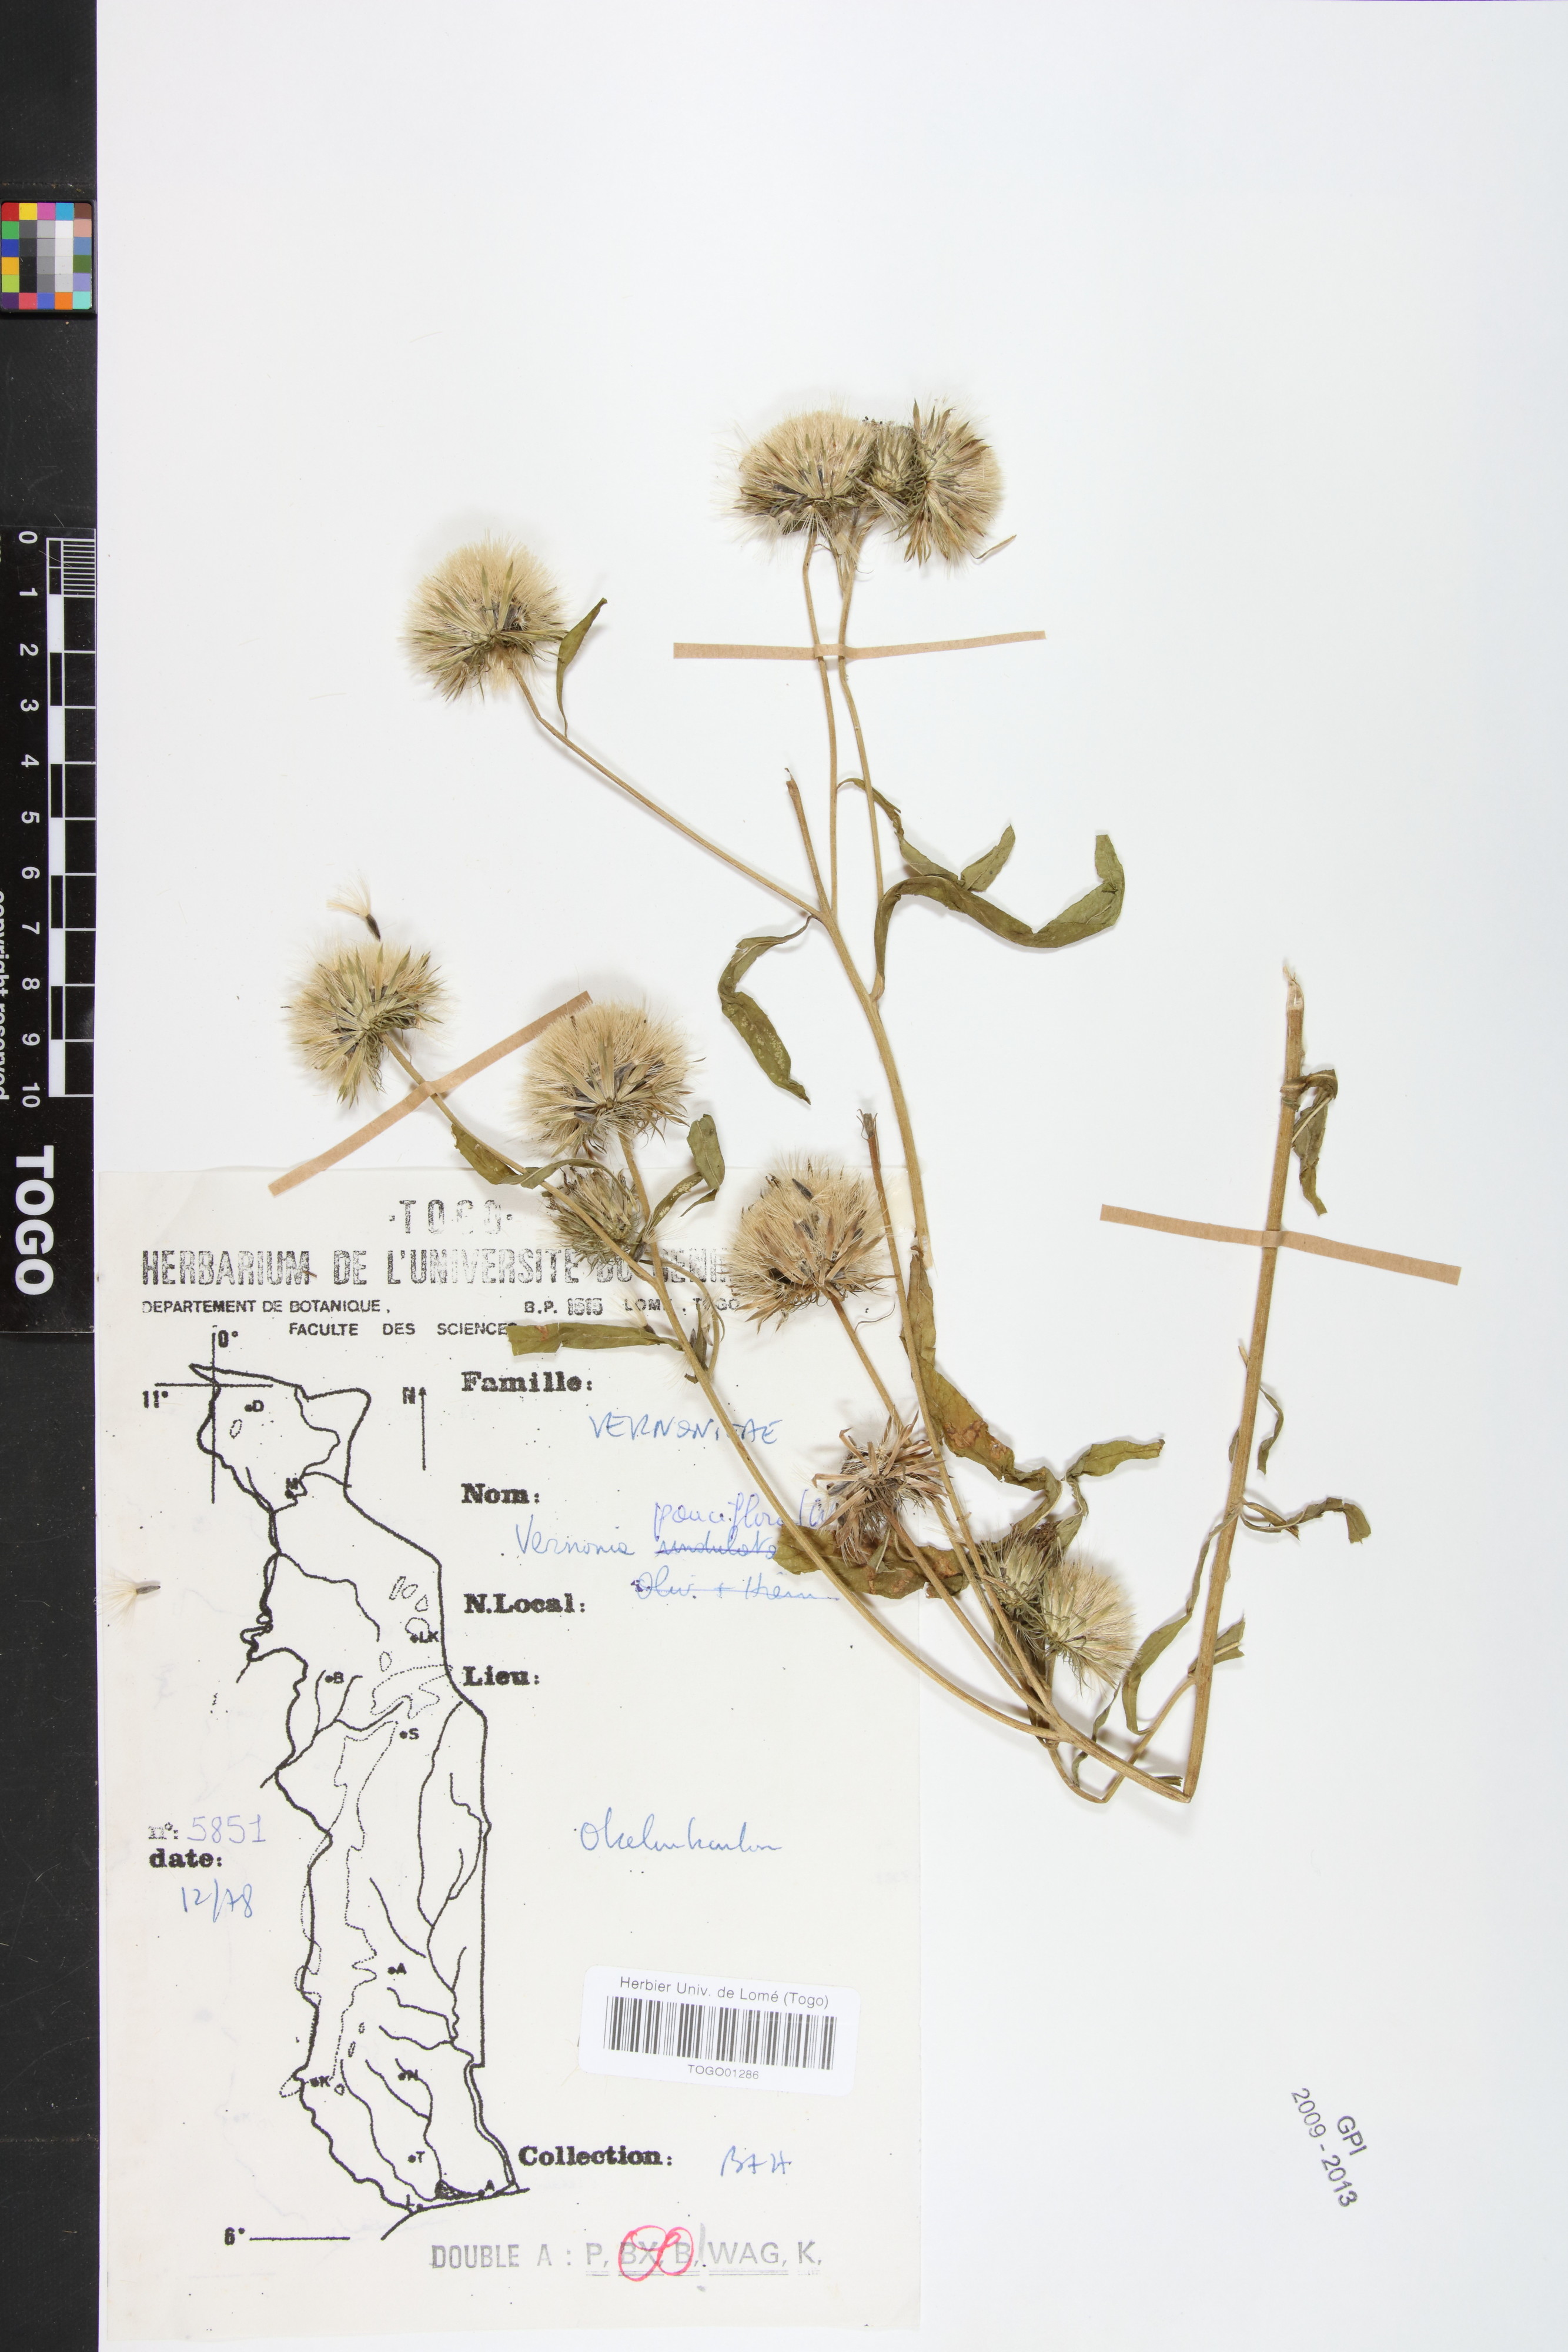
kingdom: Plantae
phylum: Tracheophyta
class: Magnoliopsida
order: Asterales
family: Asteraceae
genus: Vernonia
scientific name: Vernonia galamensis
